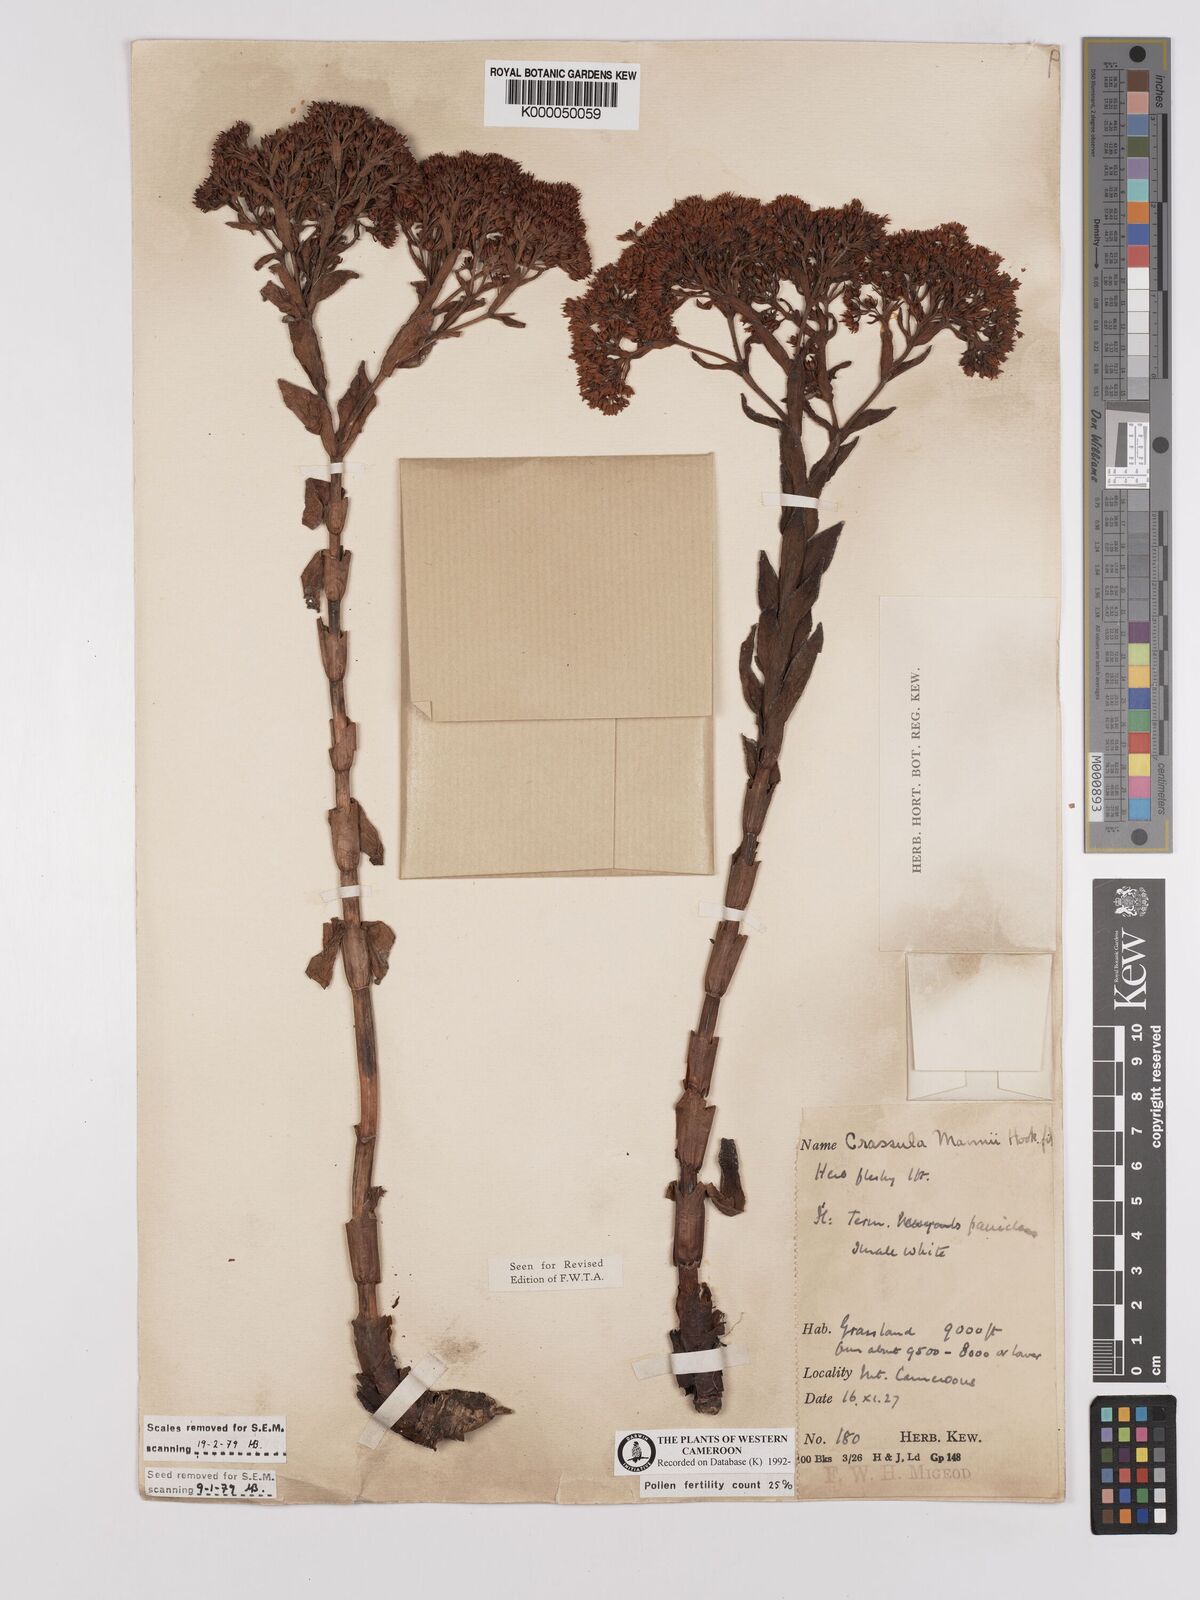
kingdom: Plantae
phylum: Tracheophyta
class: Magnoliopsida
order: Saxifragales
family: Crassulaceae
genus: Crassula
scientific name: Crassula vaginata
